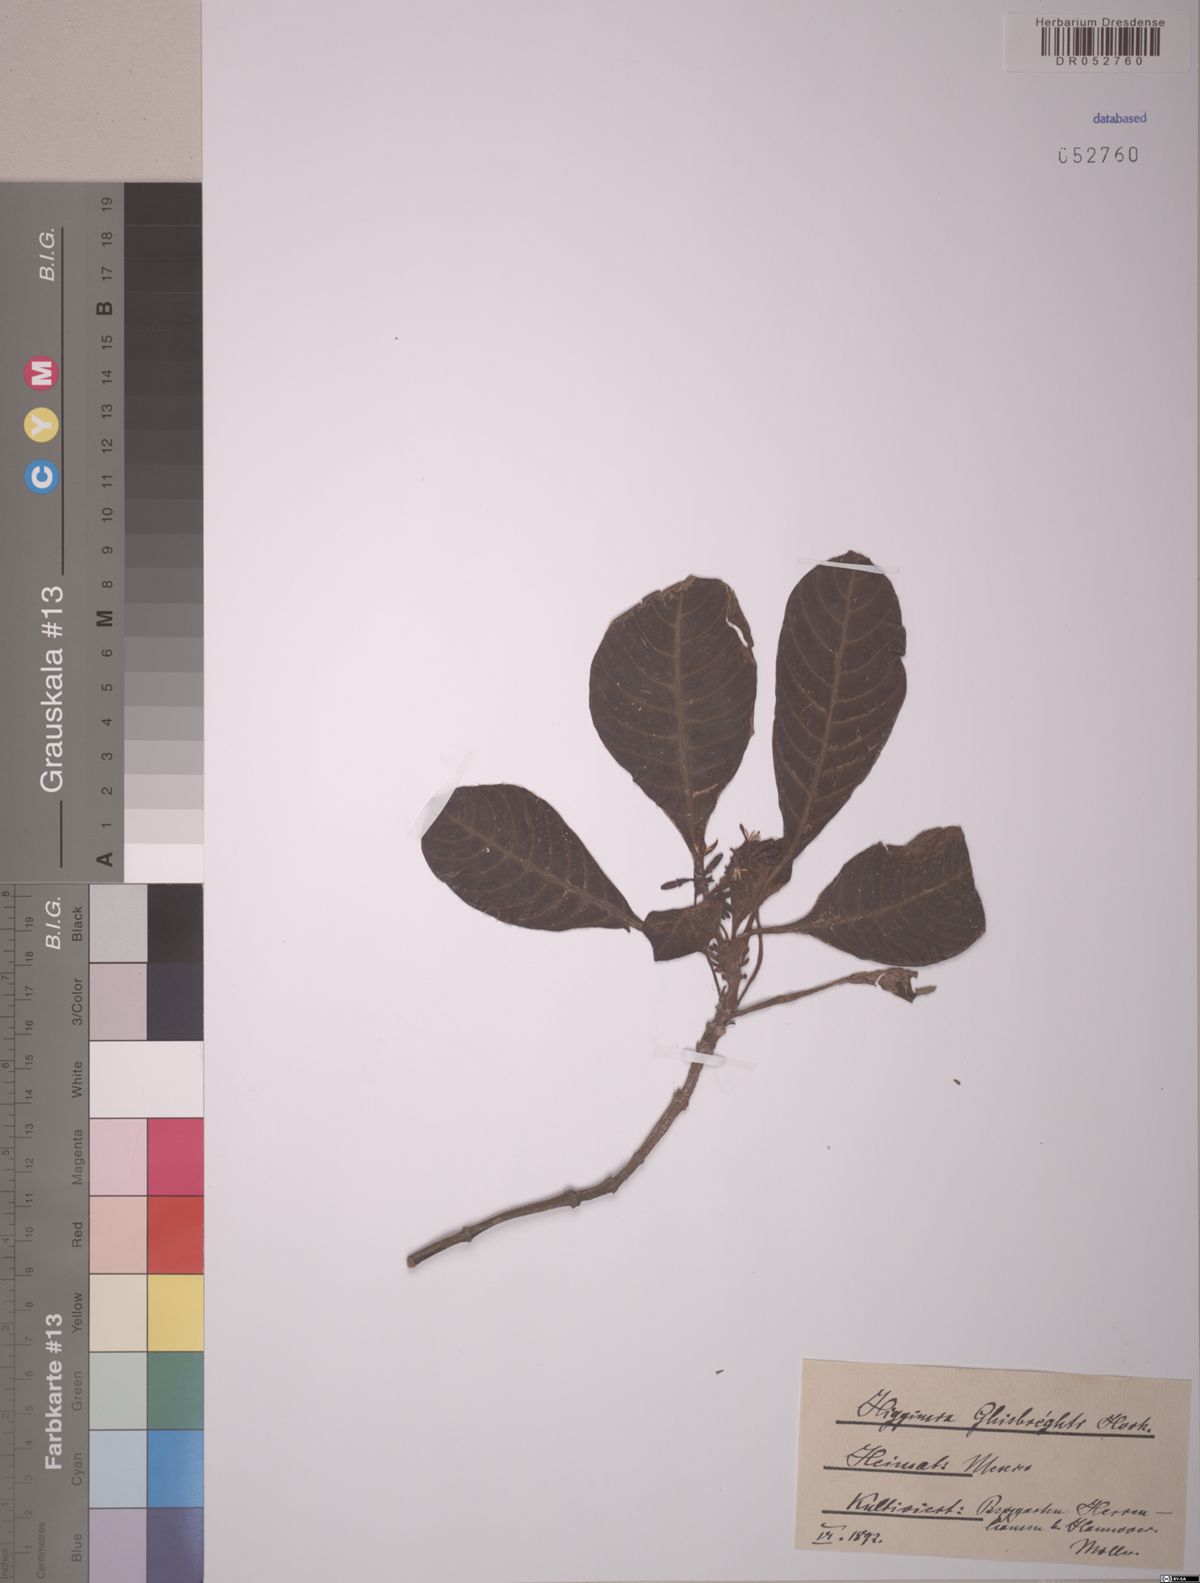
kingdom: Plantae
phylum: Tracheophyta
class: Magnoliopsida
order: Gentianales
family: Rubiaceae
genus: Hoffmannia
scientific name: Hoffmannia ghiesbreghtii
